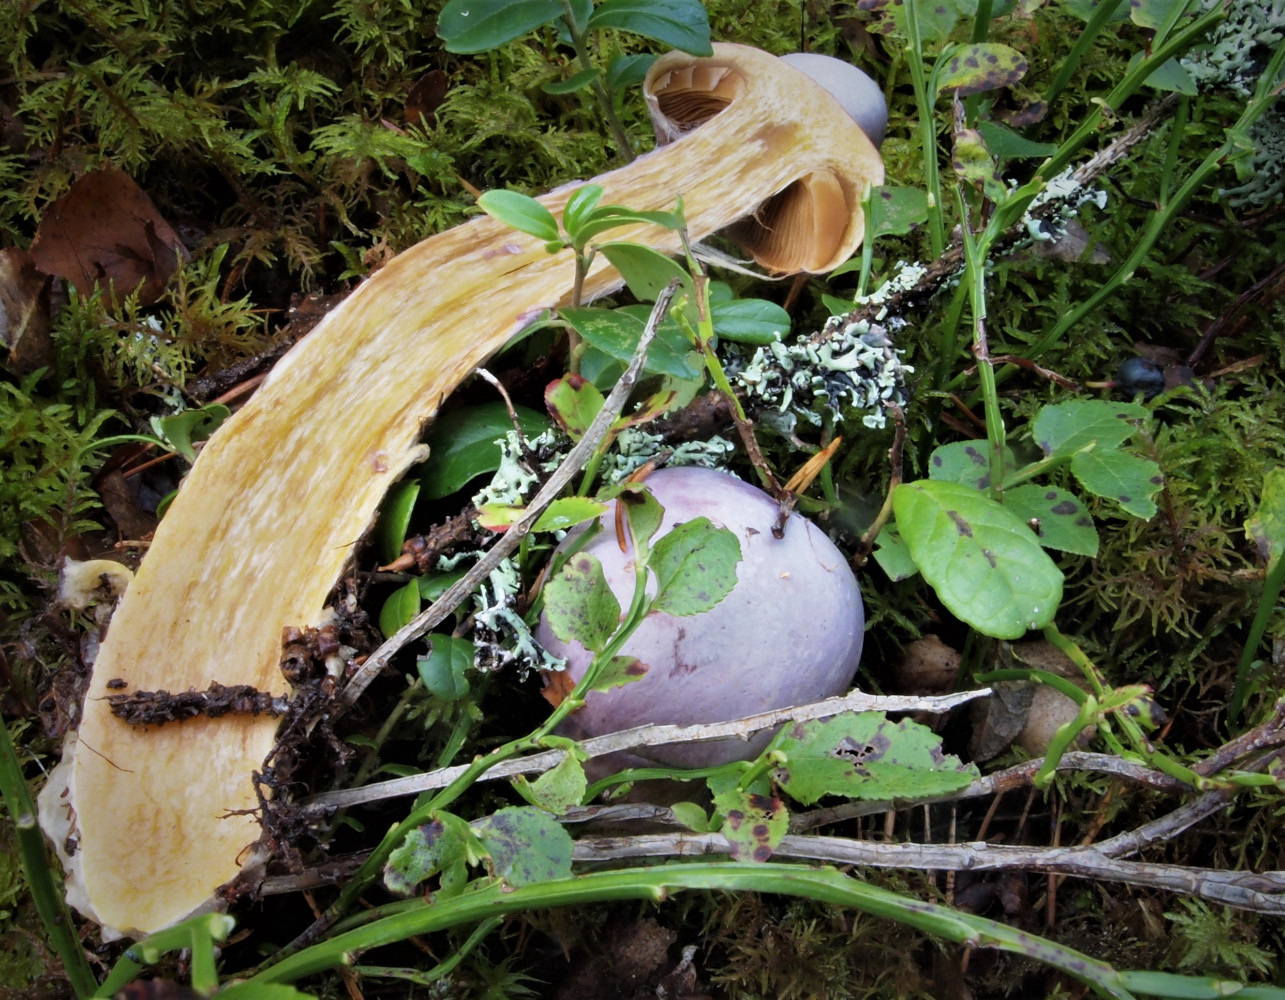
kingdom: Fungi
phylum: Basidiomycota
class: Agaricomycetes
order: Agaricales
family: Cortinariaceae
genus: Cortinarius
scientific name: Cortinarius traganus
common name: safrankødet slørhat
